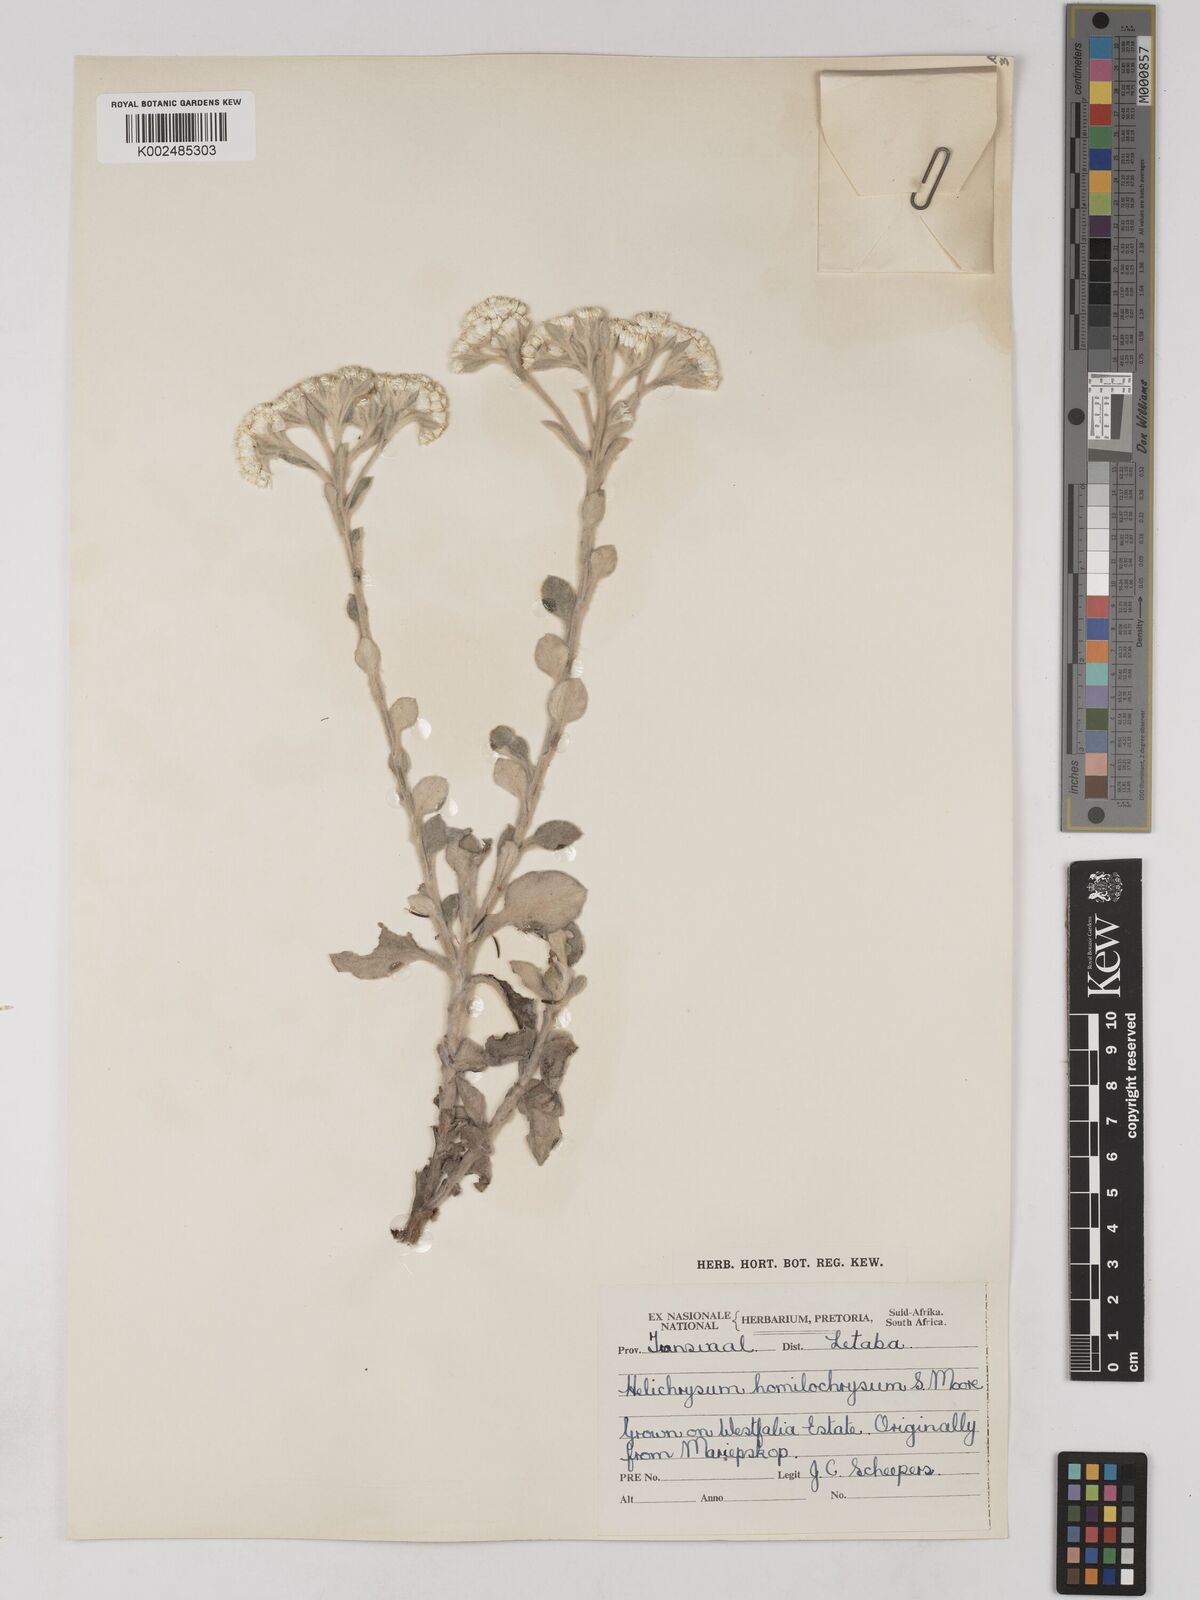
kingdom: Plantae
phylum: Tracheophyta
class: Magnoliopsida
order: Asterales
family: Asteraceae
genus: Helichrysum
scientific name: Helichrysum homilochrysum
